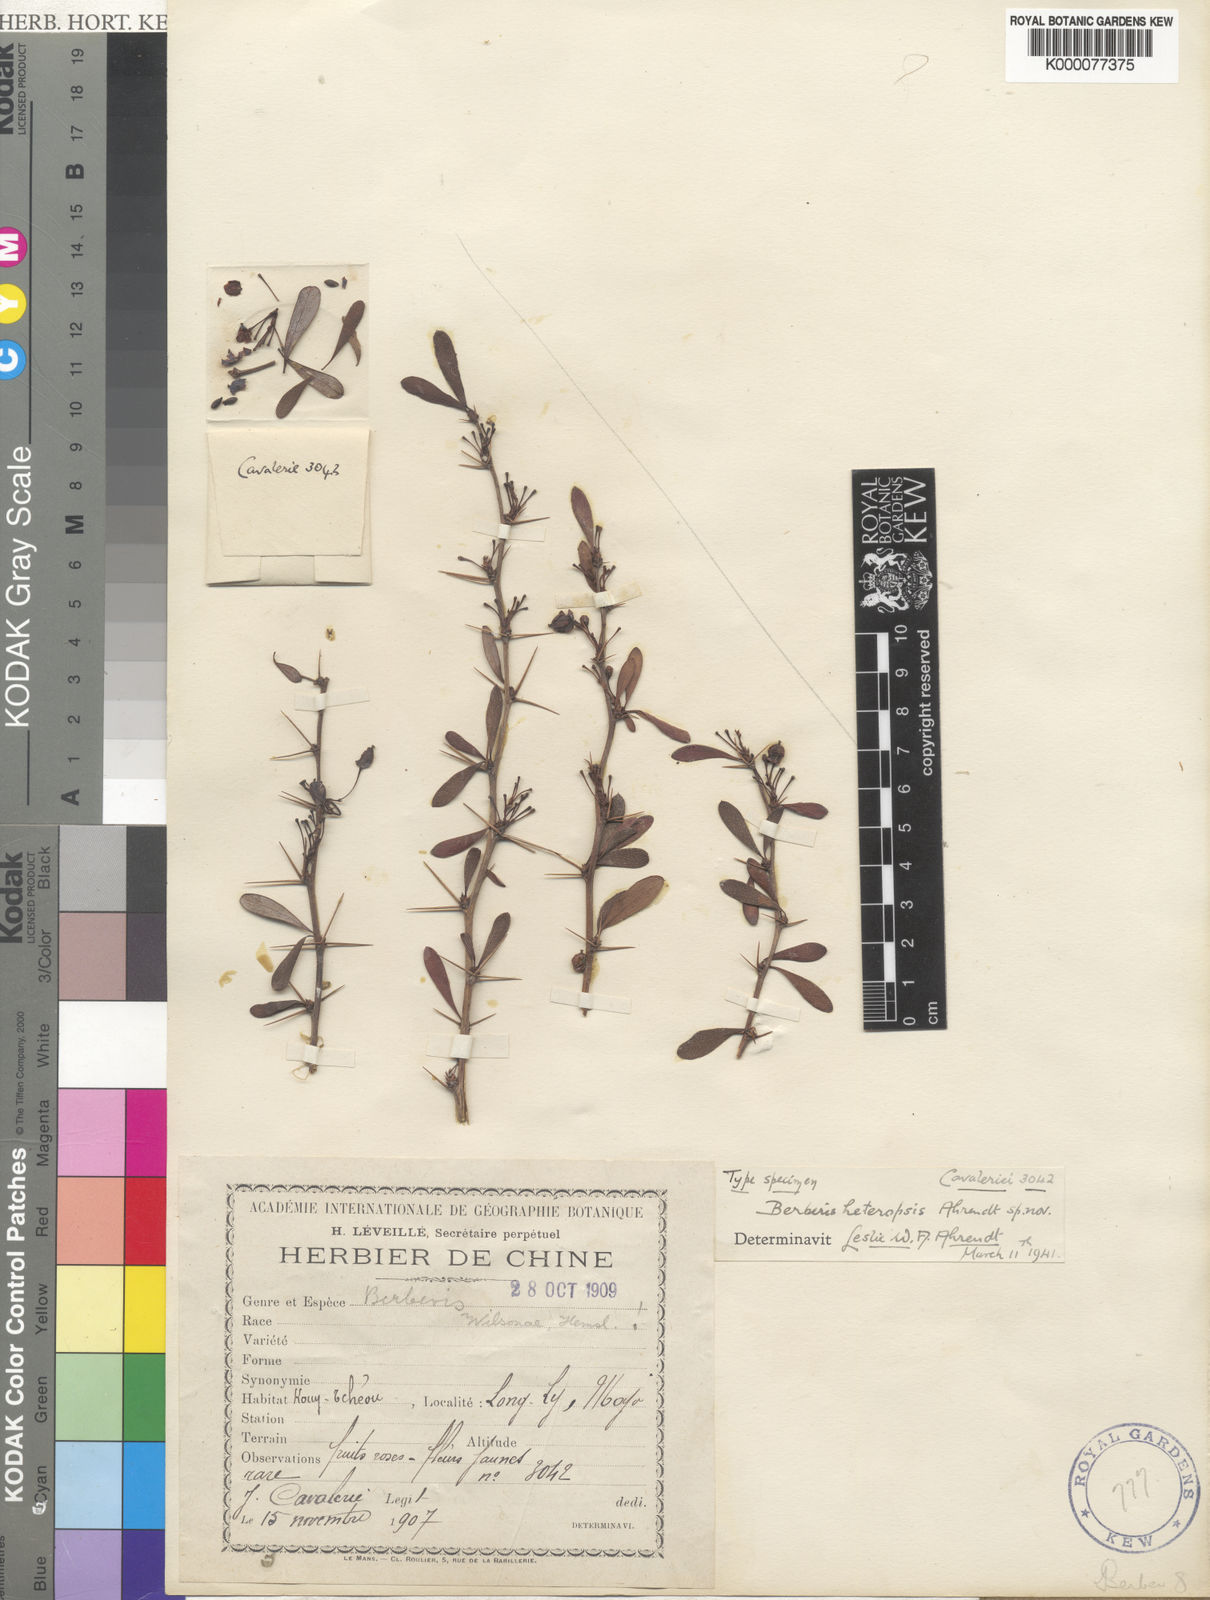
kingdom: Plantae
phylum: Tracheophyta
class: Magnoliopsida
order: Ranunculales
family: Berberidaceae
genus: Berberis
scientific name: Berberis wilsoniae
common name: Mrs wilson's barberry
